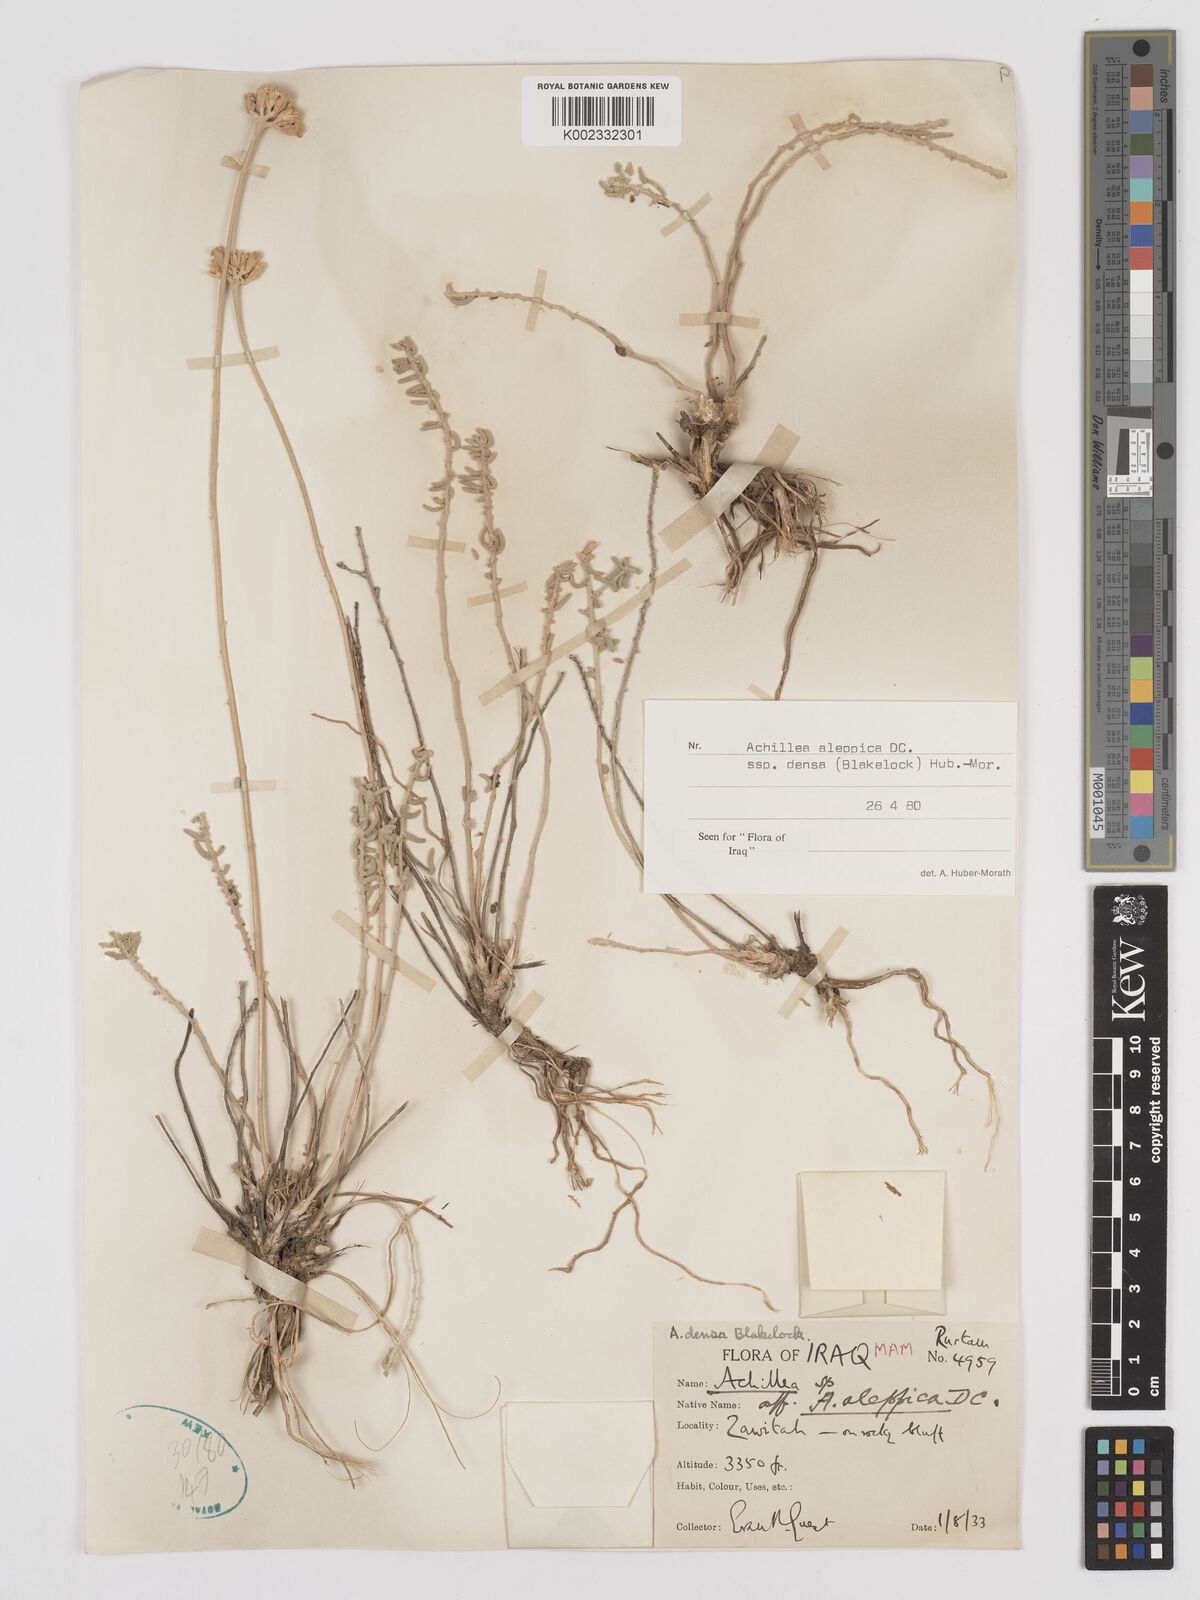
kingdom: Plantae
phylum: Tracheophyta
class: Magnoliopsida
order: Asterales
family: Asteraceae
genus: Achillea
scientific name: Achillea aleppica
